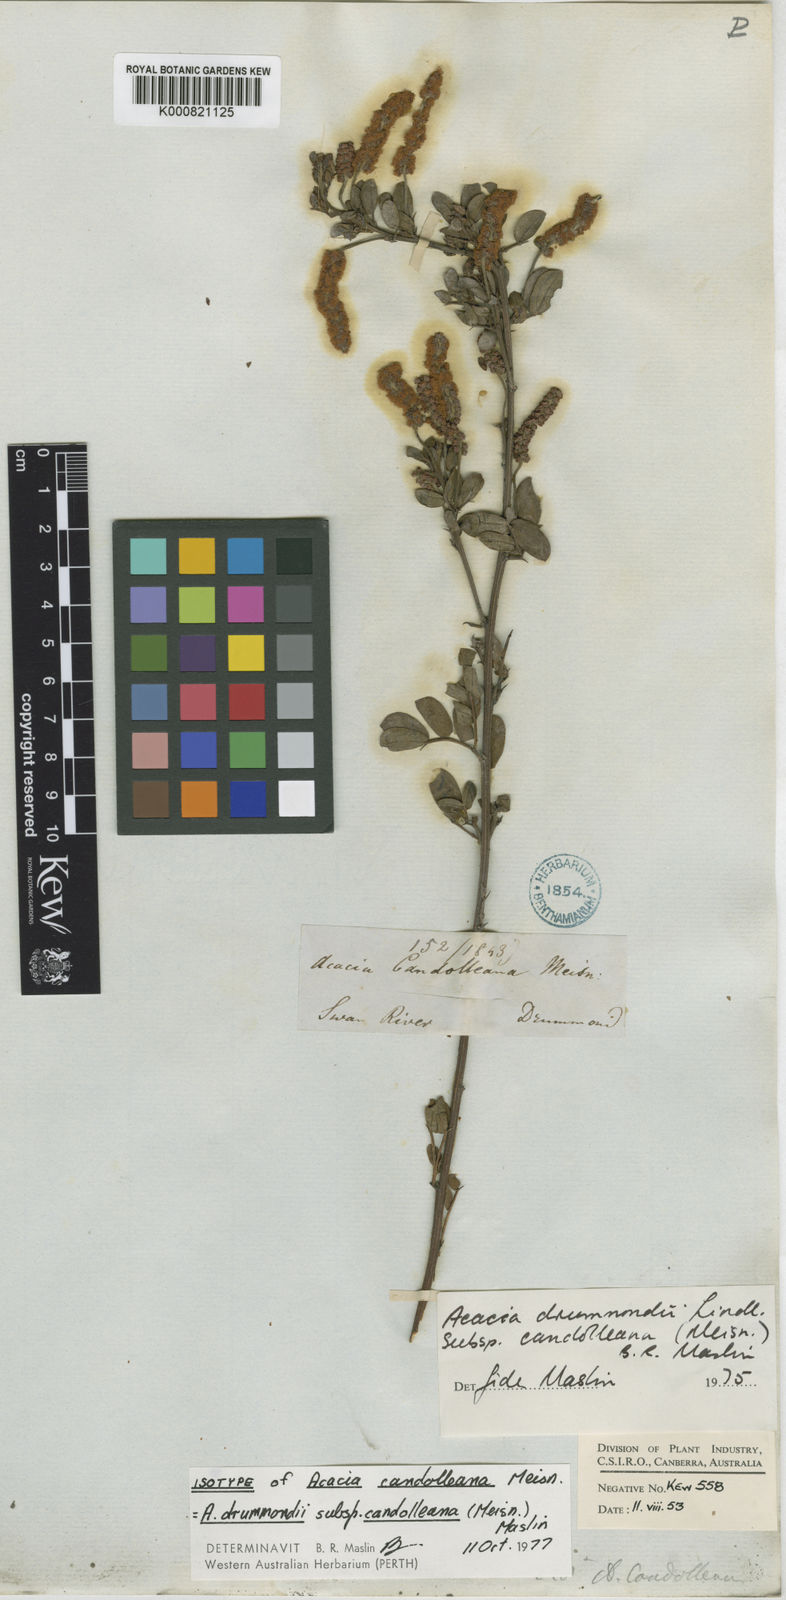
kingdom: Plantae
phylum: Tracheophyta
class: Magnoliopsida
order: Fabales
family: Fabaceae
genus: Acacia
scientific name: Acacia drummondii
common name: Drummond's wattle
